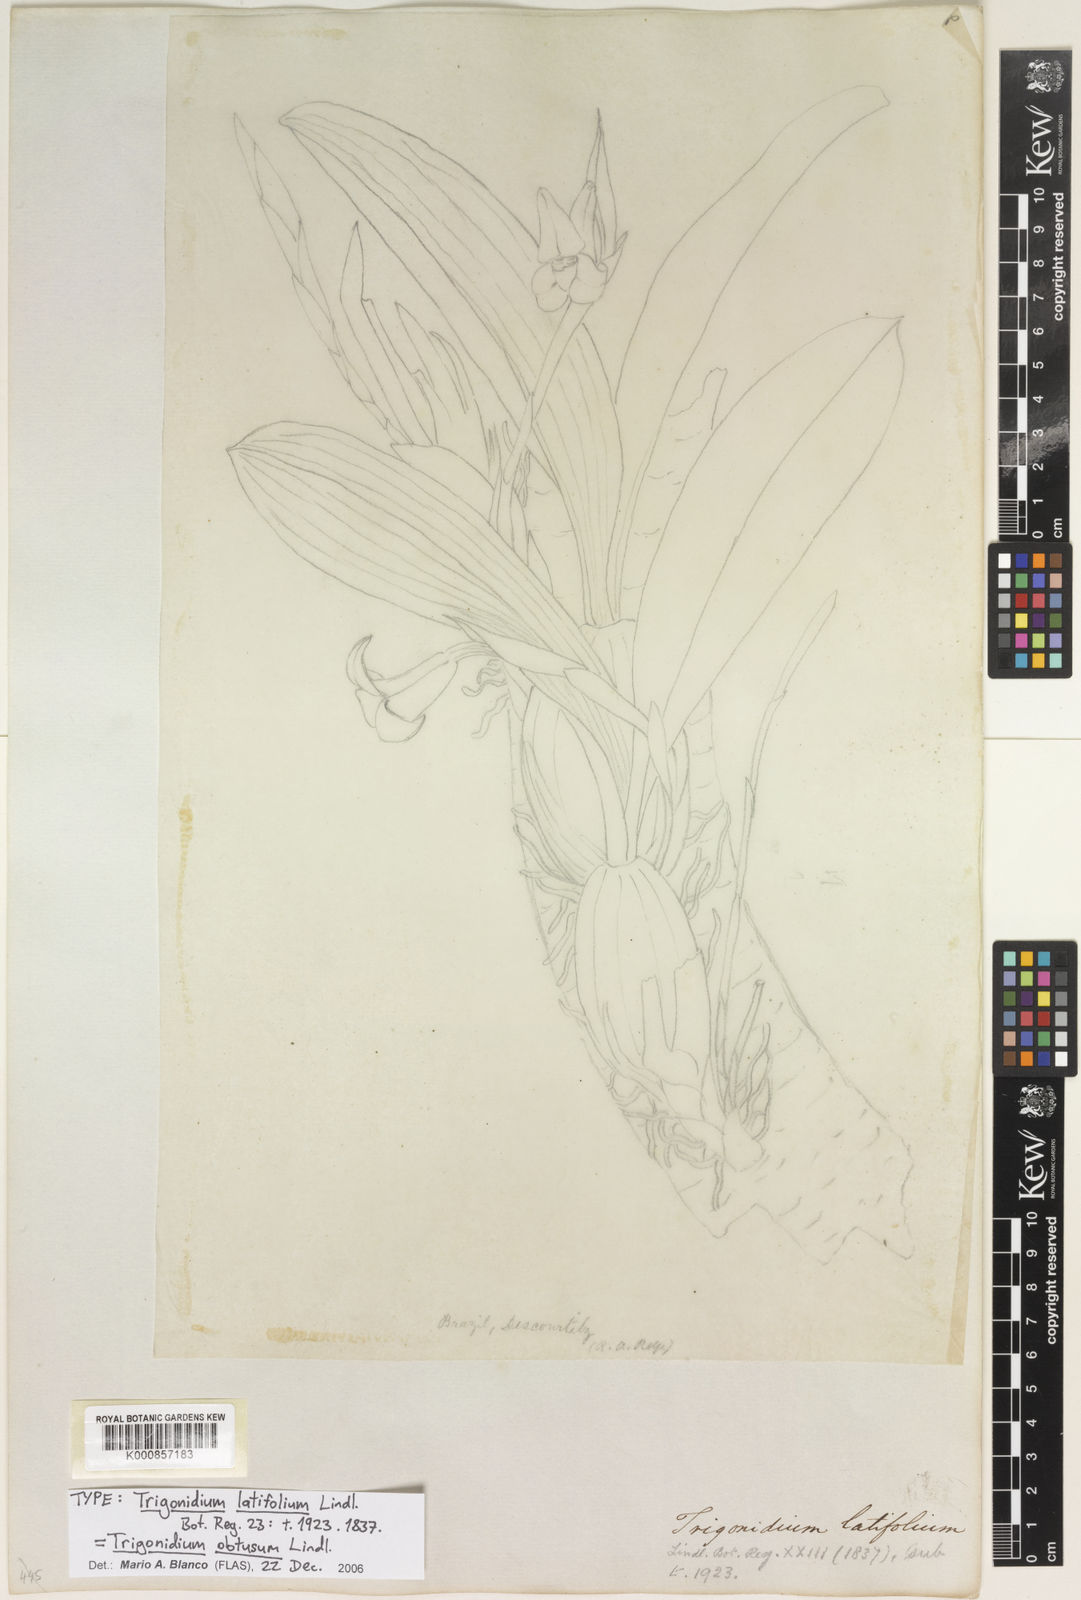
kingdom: Plantae
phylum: Tracheophyta
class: Liliopsida
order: Asparagales
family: Orchidaceae
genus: Maxillaria
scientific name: Maxillaria obtusa
